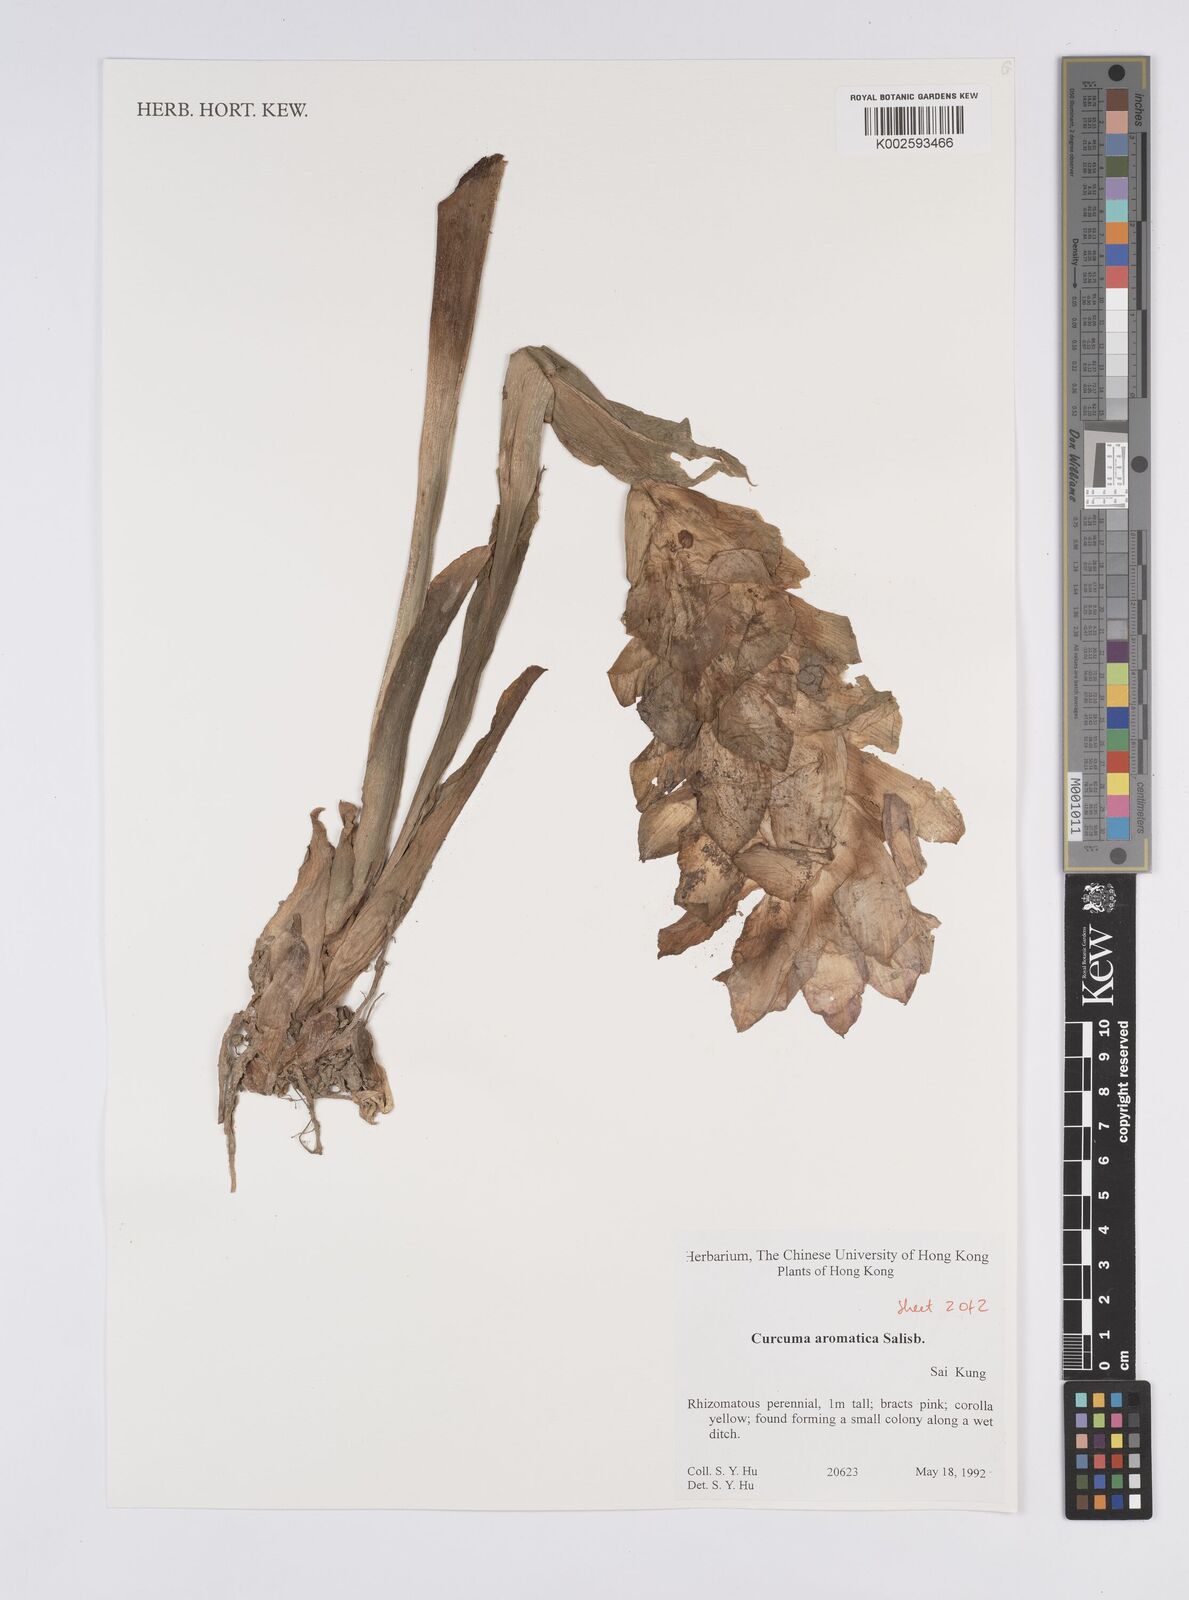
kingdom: Plantae
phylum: Tracheophyta
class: Liliopsida
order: Zingiberales
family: Zingiberaceae
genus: Curcuma
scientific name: Curcuma aromatica
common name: Wild turmeric
